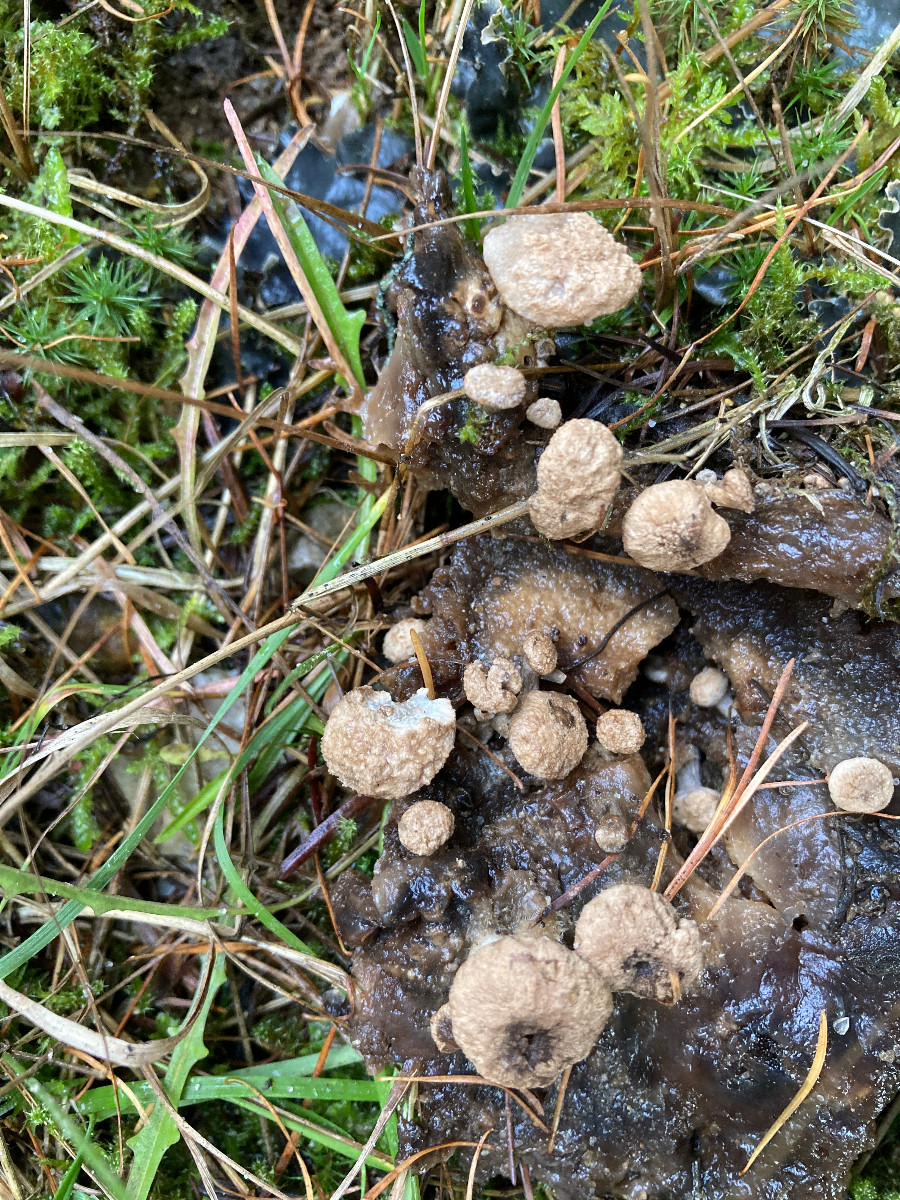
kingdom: Fungi
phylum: Basidiomycota
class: Agaricomycetes
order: Agaricales
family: Lyophyllaceae
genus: Asterophora
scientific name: Asterophora lycoperdoides
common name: brunpudret snyltehat
